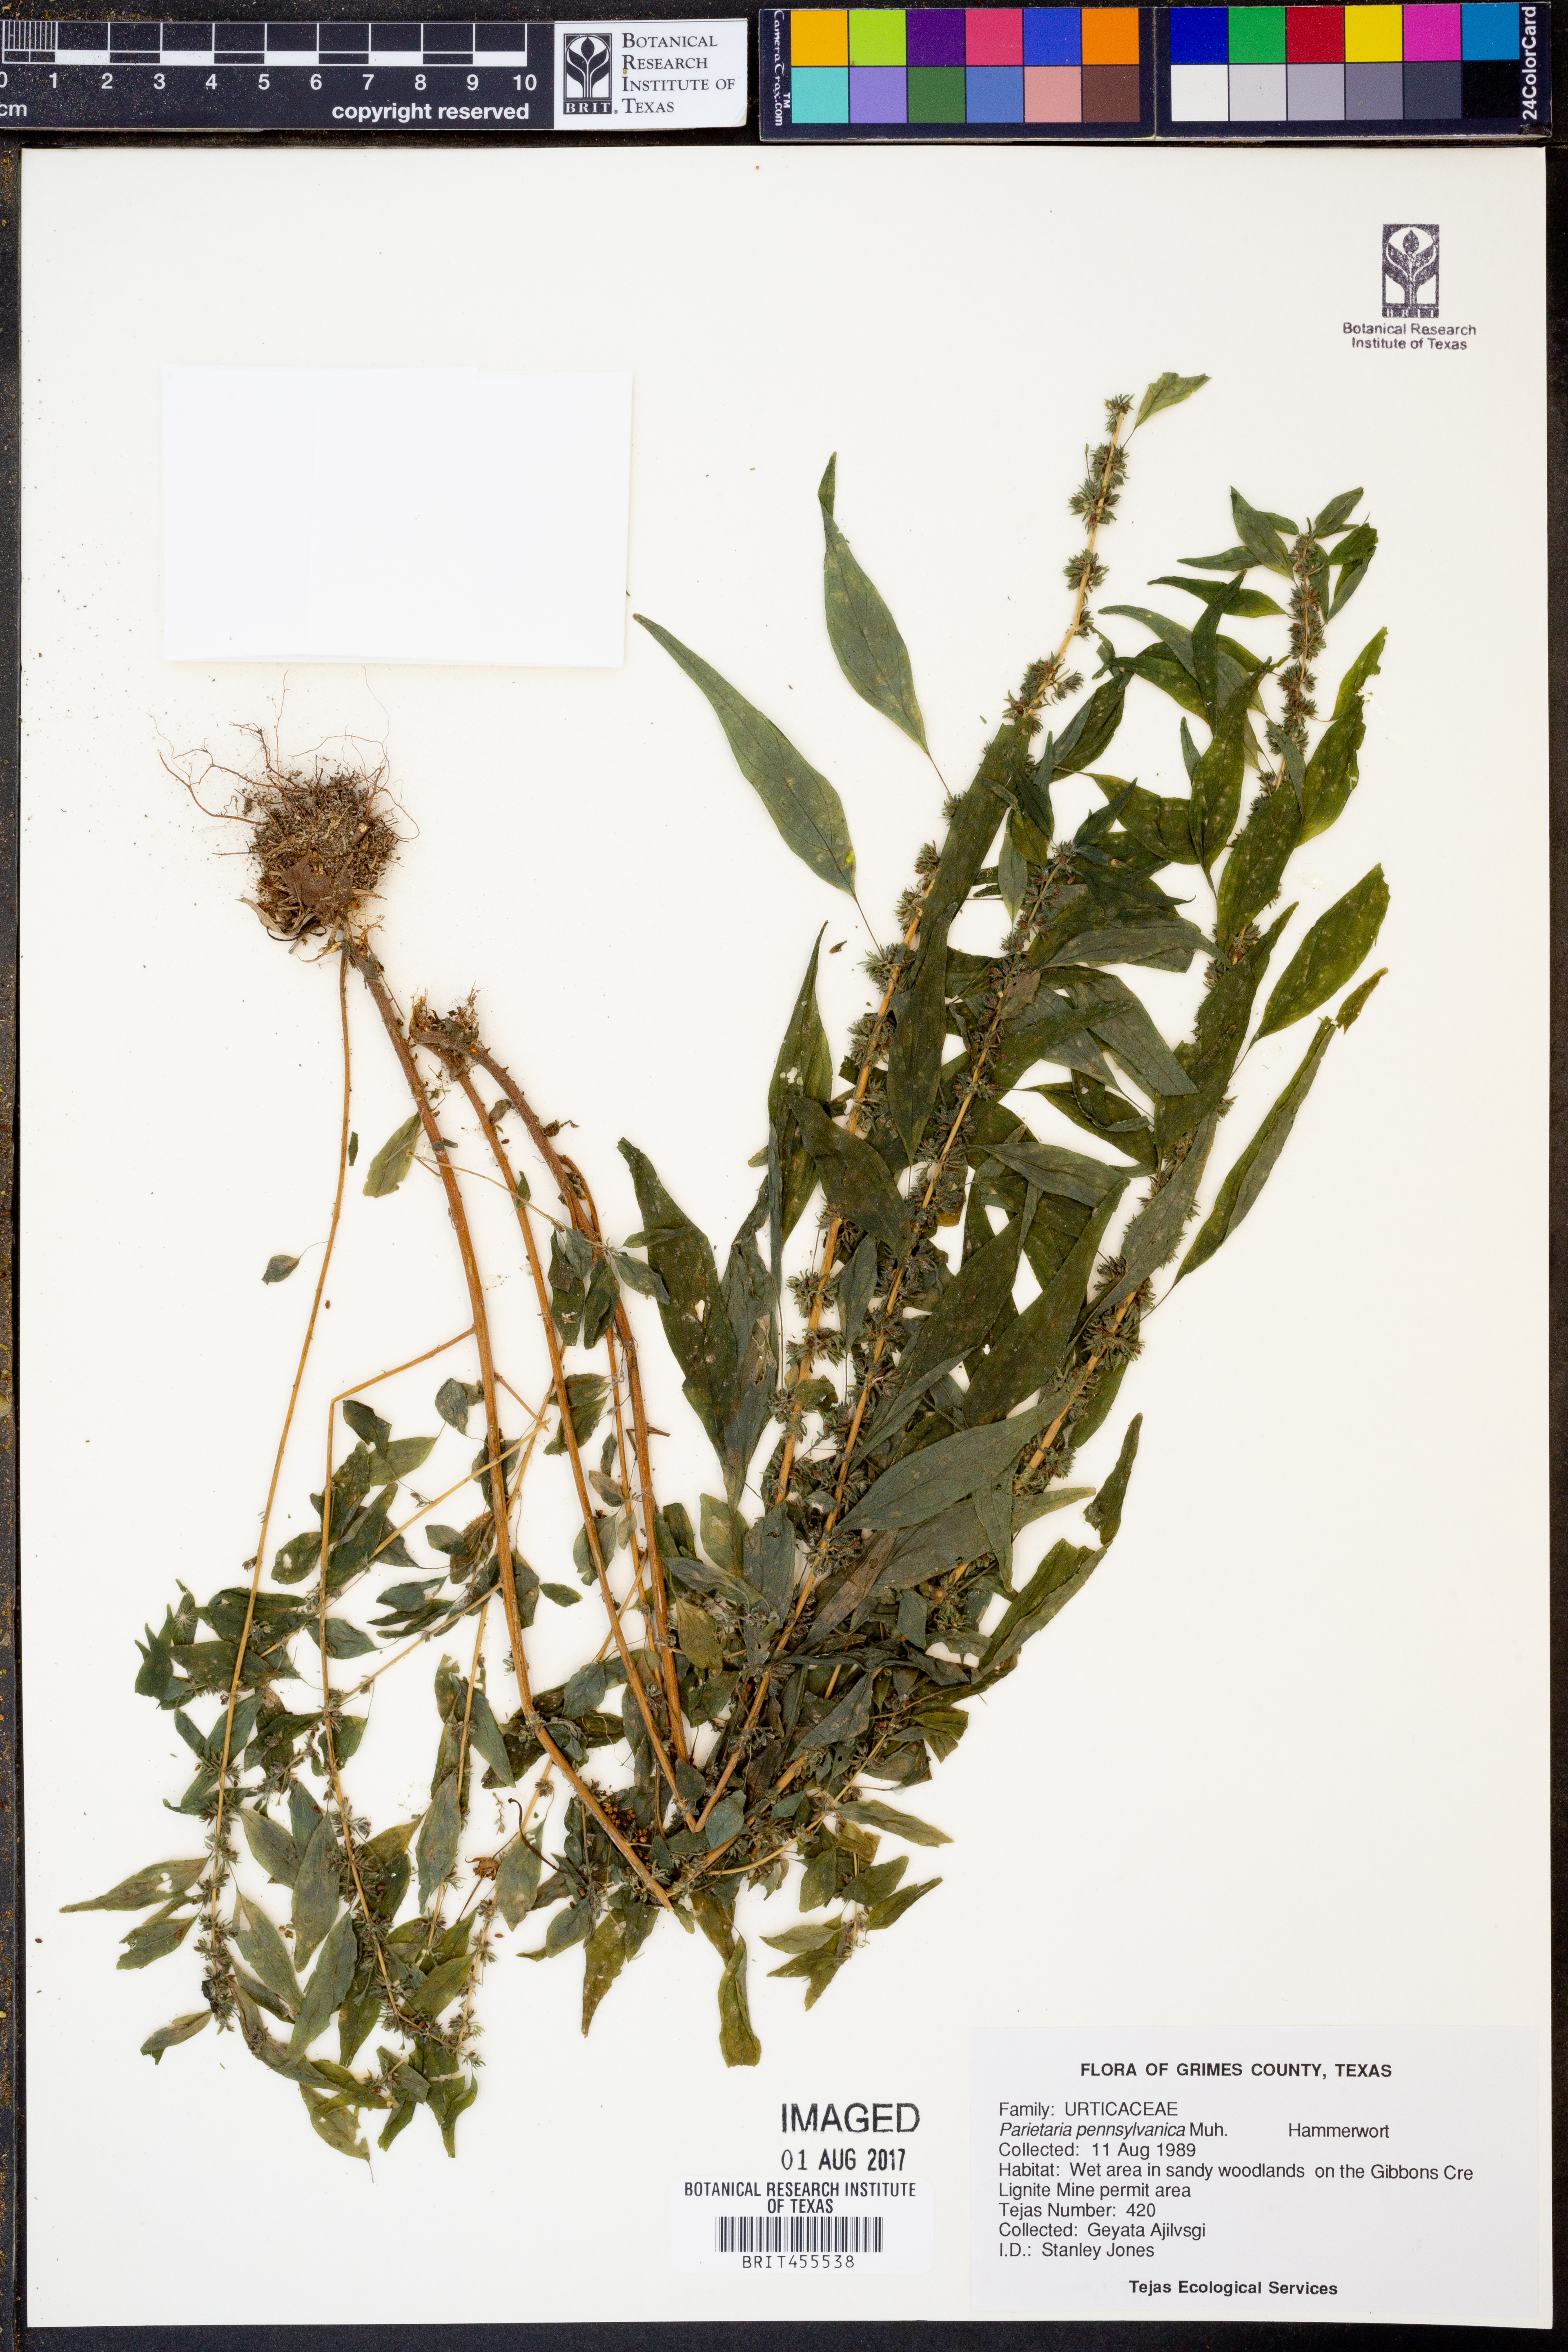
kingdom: Plantae
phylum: Tracheophyta
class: Magnoliopsida
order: Rosales
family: Urticaceae
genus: Parietaria
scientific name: Parietaria pensylvanica
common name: Pennsylvania pellitory
